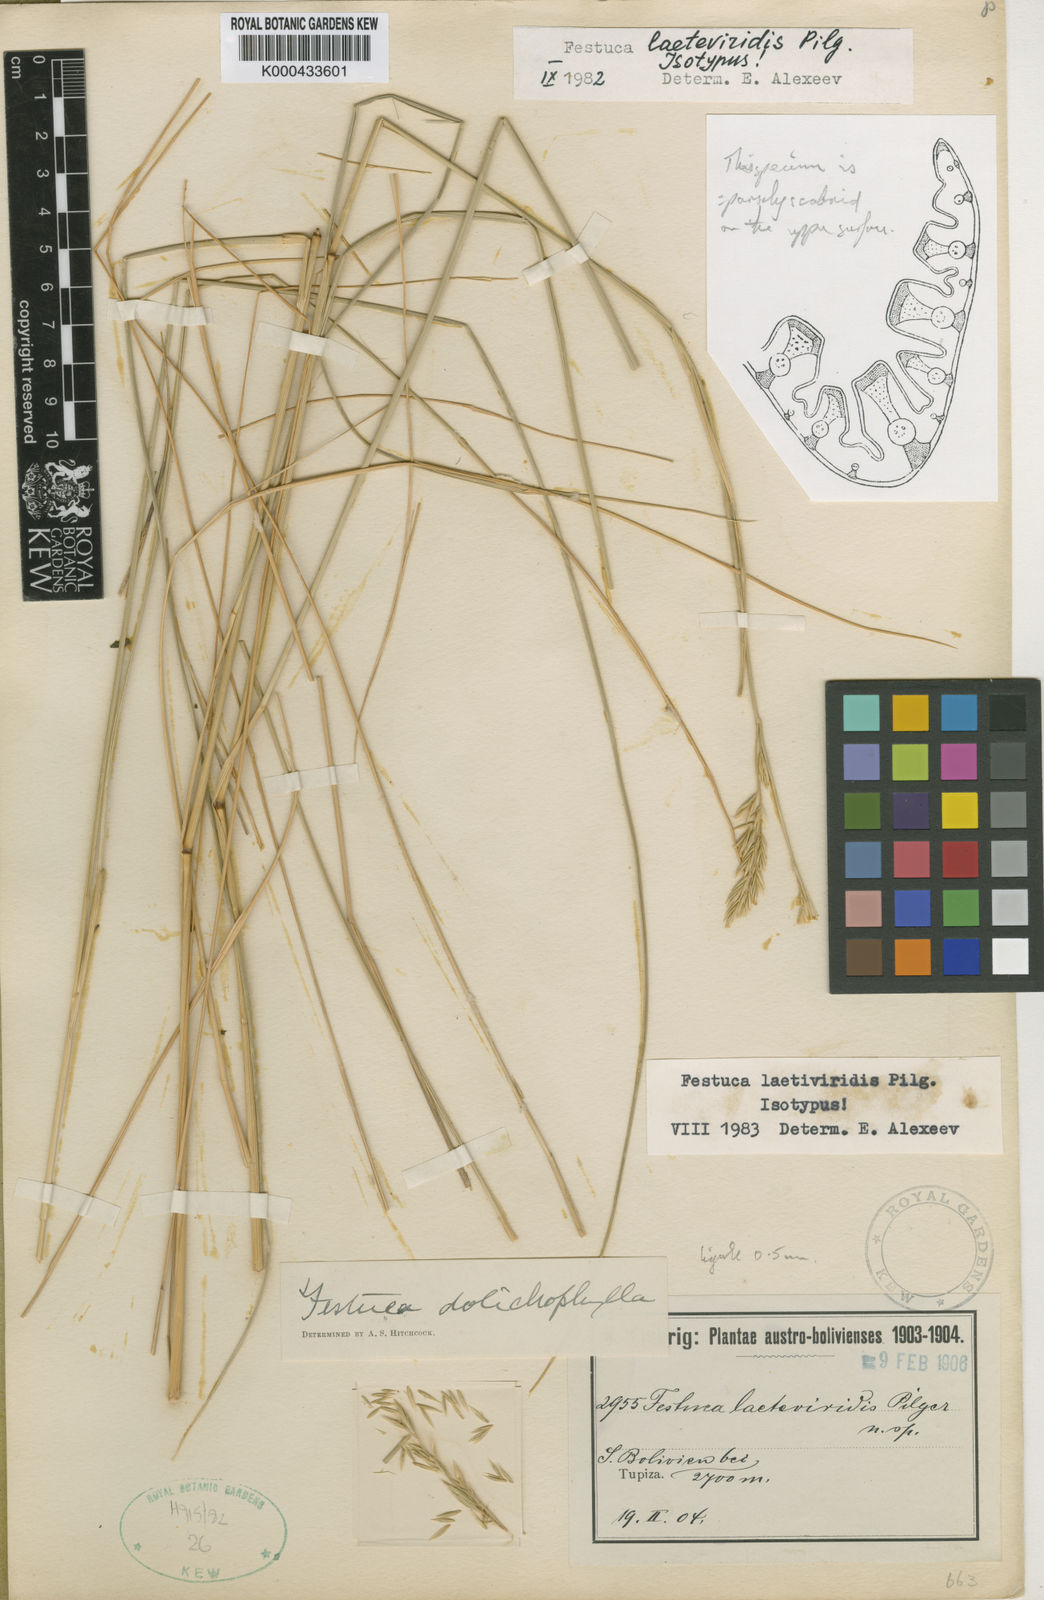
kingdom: Plantae
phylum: Tracheophyta
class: Liliopsida
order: Poales
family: Poaceae
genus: Festuca
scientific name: Festuca dolichophylla
